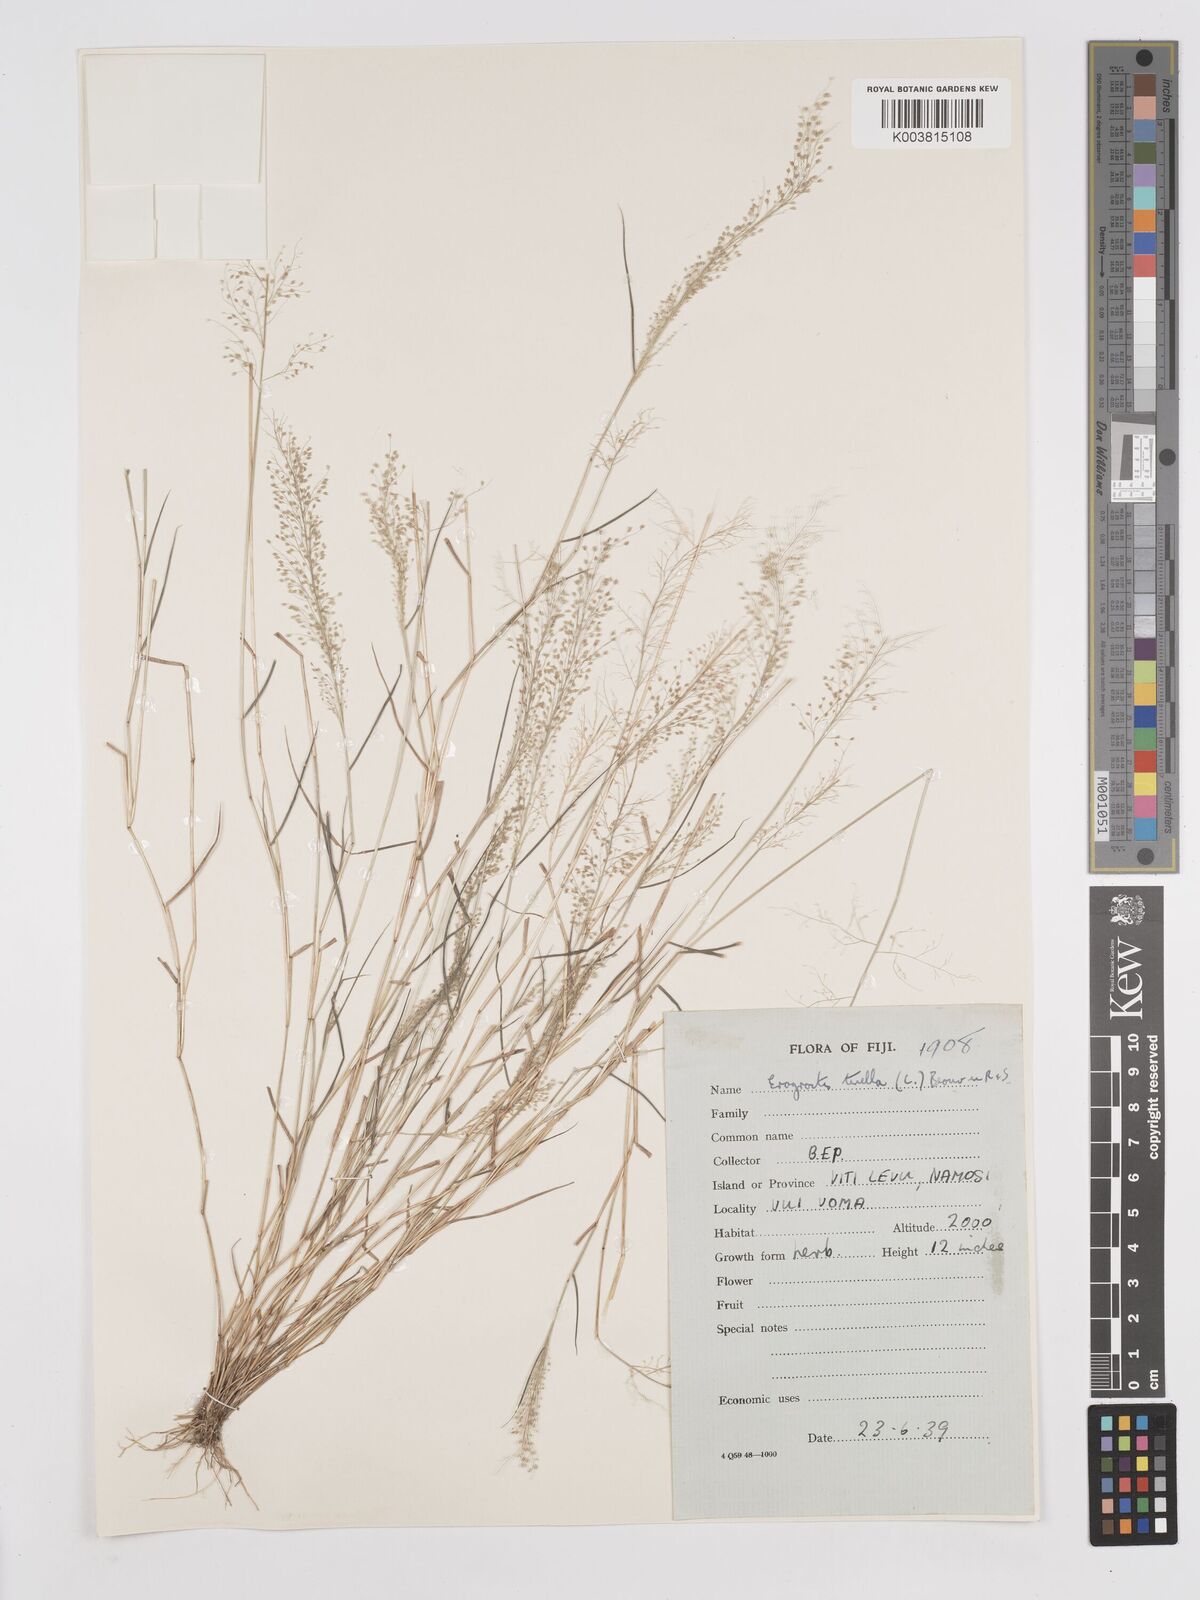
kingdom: Plantae
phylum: Tracheophyta
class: Liliopsida
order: Poales
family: Poaceae
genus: Eragrostis
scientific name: Eragrostis tenella
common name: Japanese lovegrass
